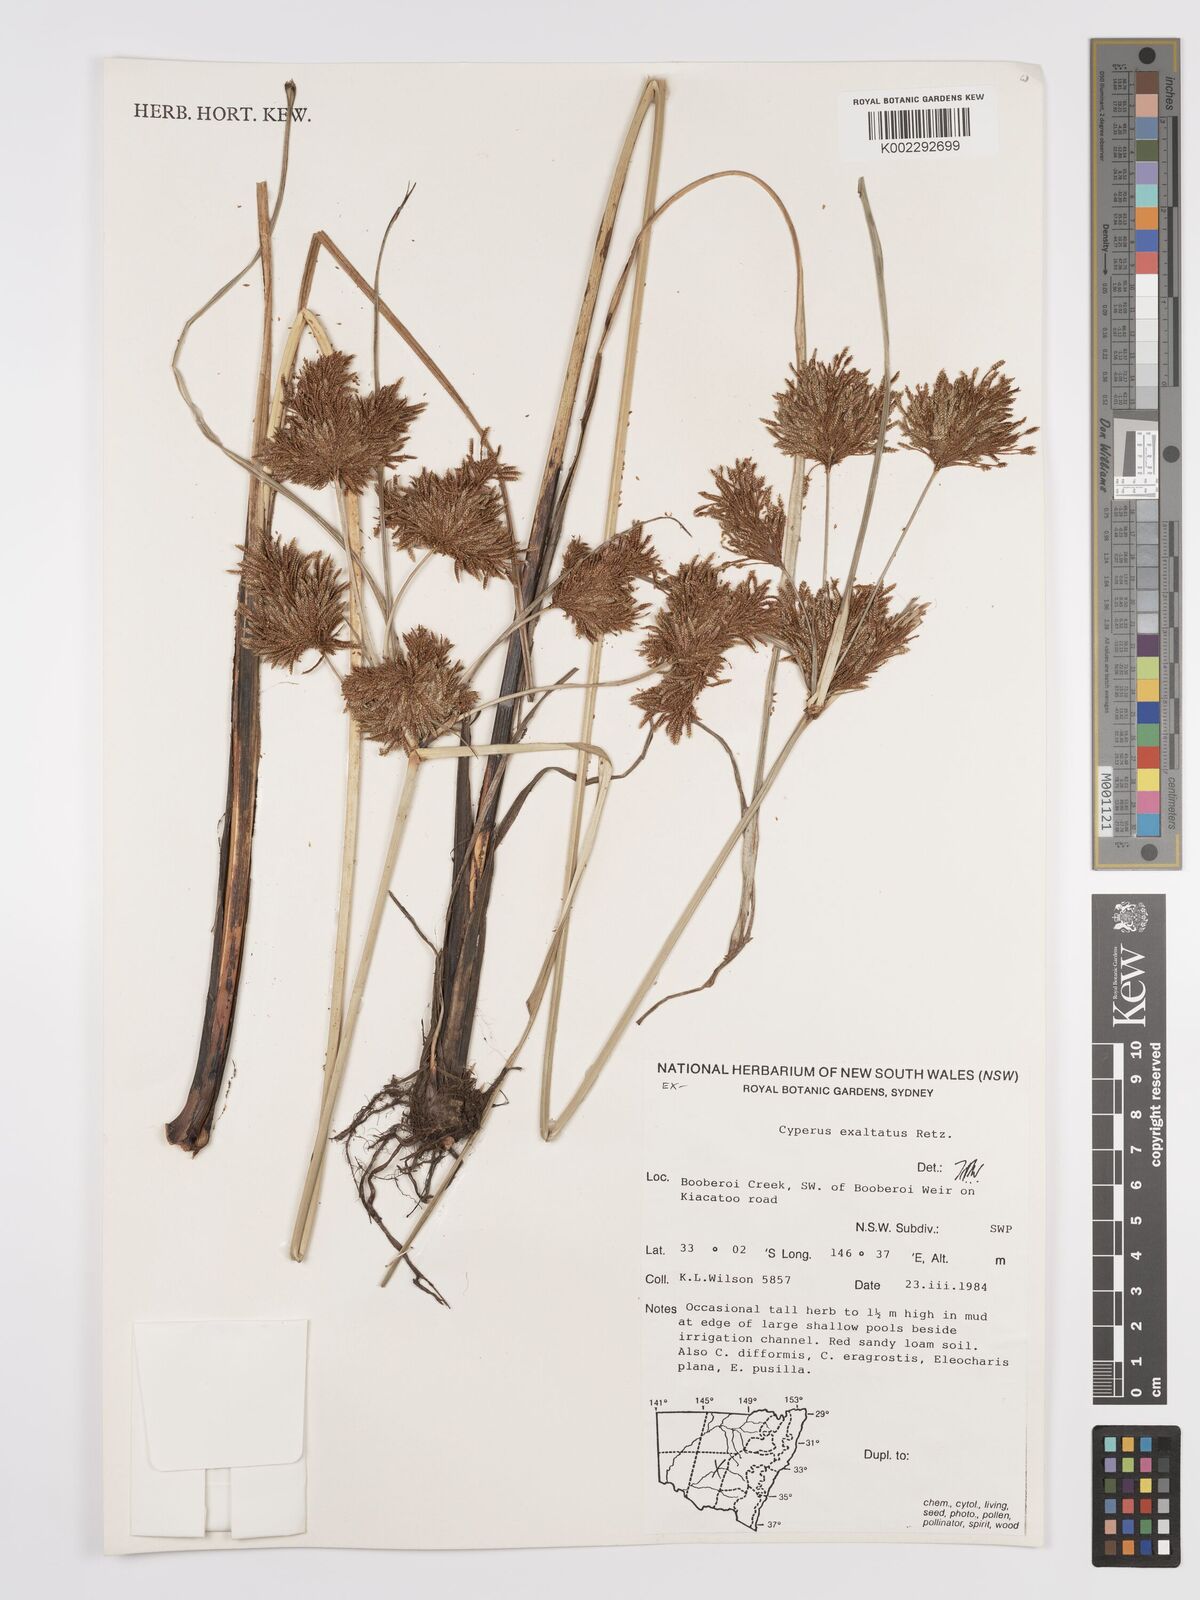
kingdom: Plantae
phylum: Tracheophyta
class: Liliopsida
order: Poales
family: Cyperaceae
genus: Cyperus
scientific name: Cyperus exaltatus
